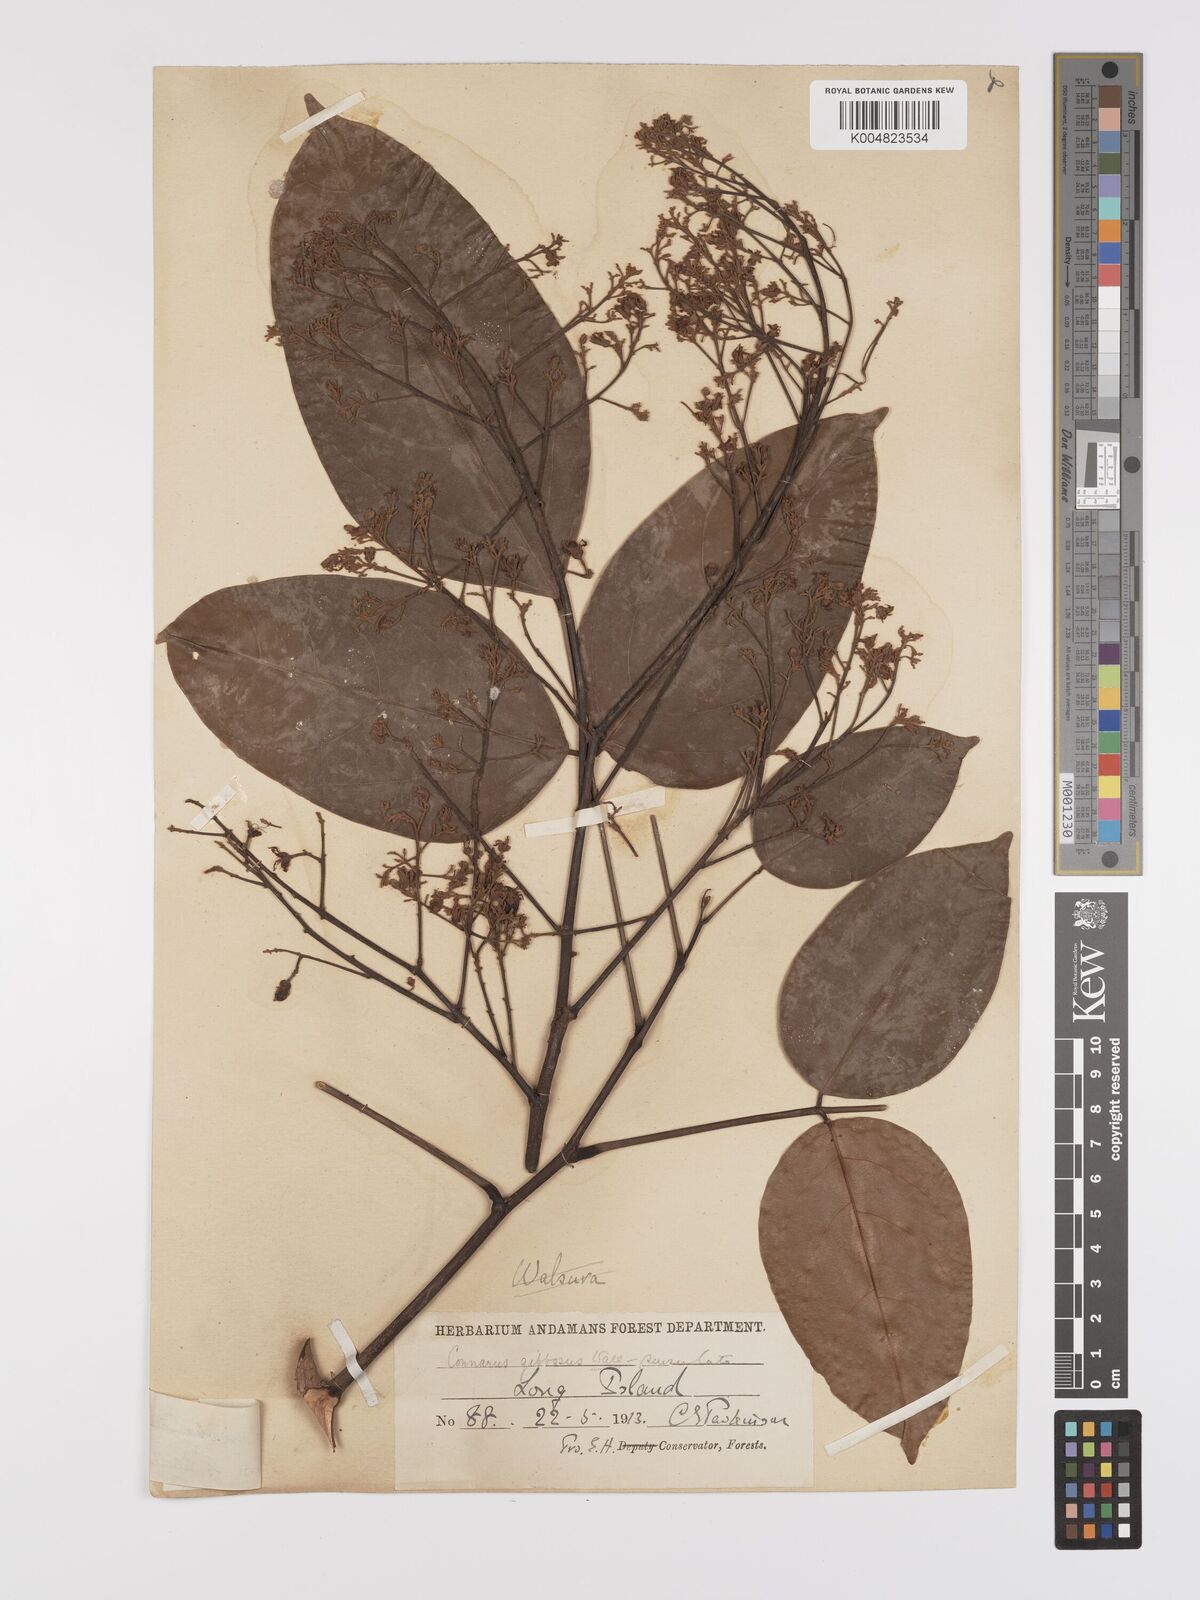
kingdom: Plantae
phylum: Tracheophyta
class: Magnoliopsida
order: Oxalidales
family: Connaraceae
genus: Connarus
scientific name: Connarus nicobaricus
